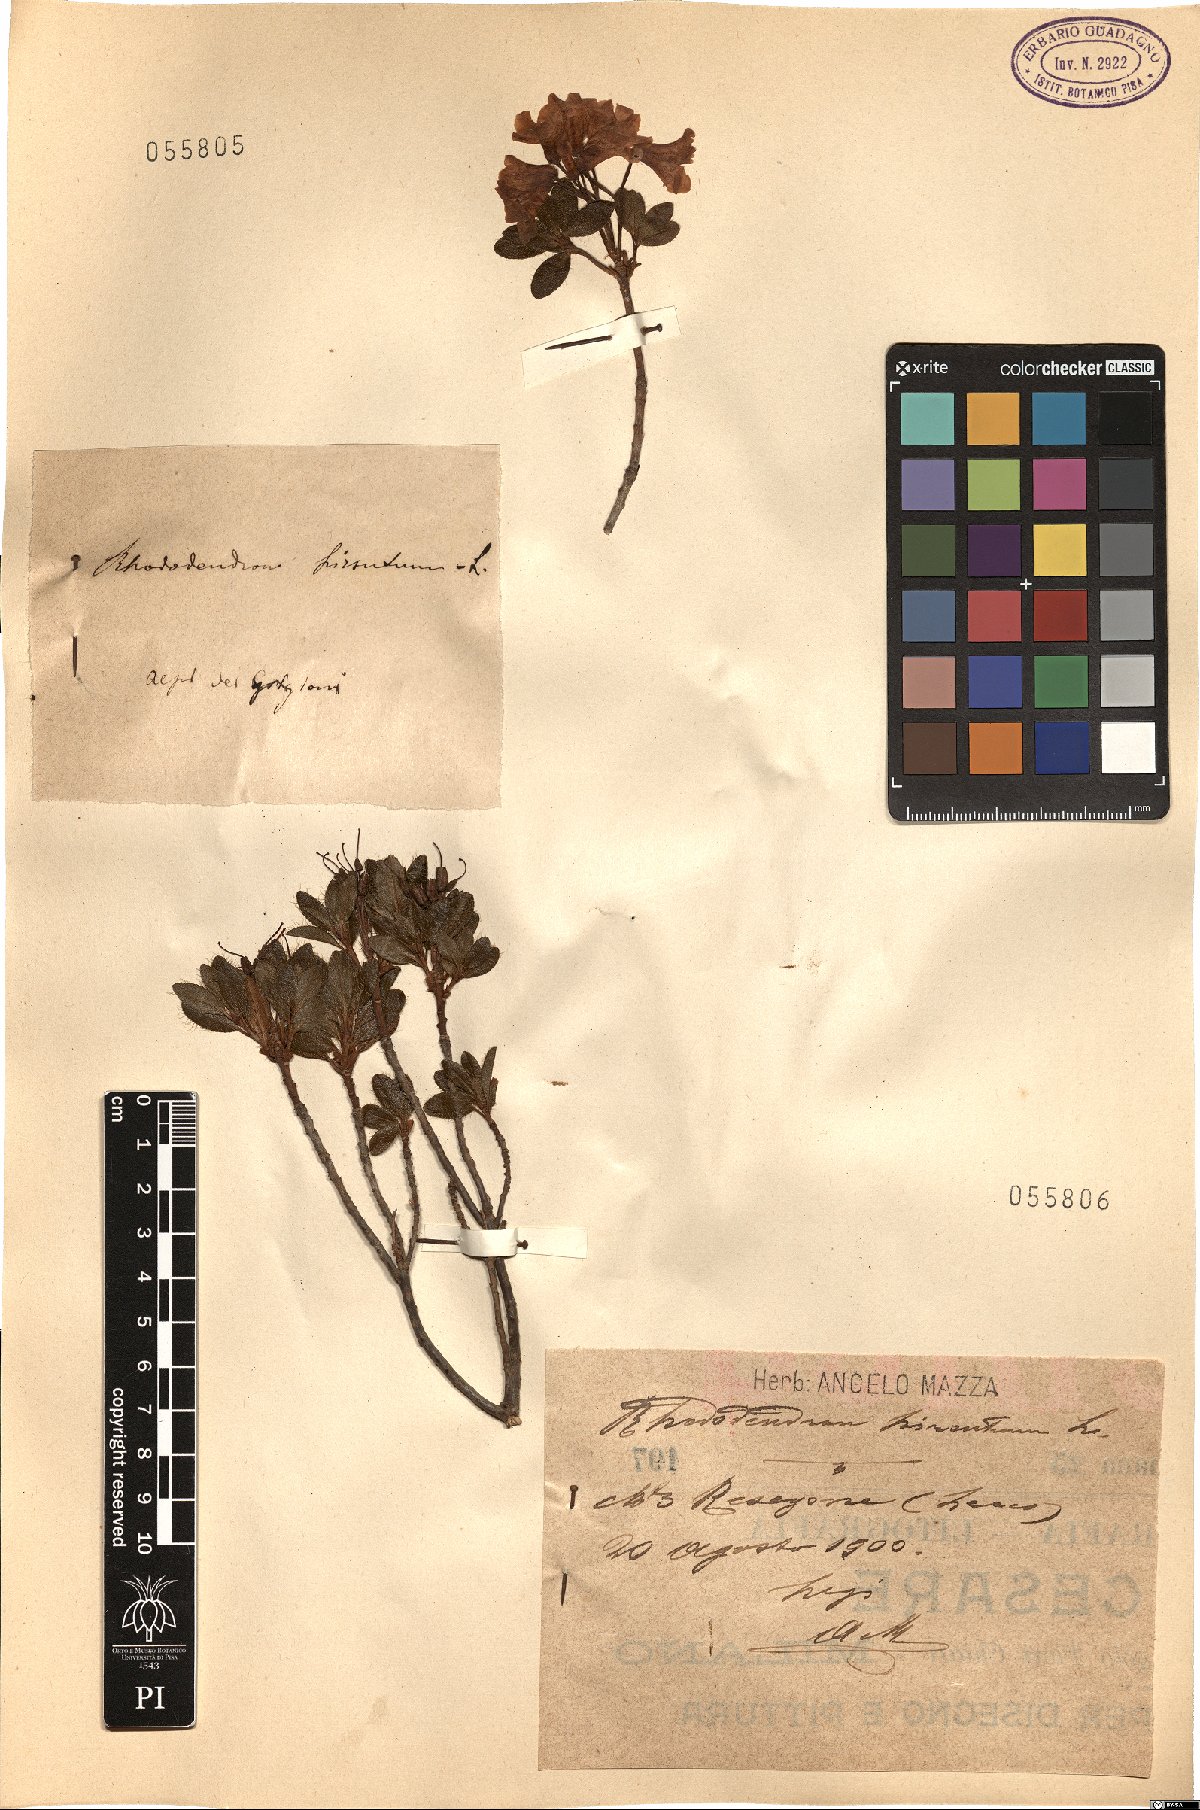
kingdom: Plantae
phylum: Tracheophyta
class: Magnoliopsida
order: Ericales
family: Ericaceae
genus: Rhododendron
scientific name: Rhododendron hirsutum
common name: Hairy alpenrose
